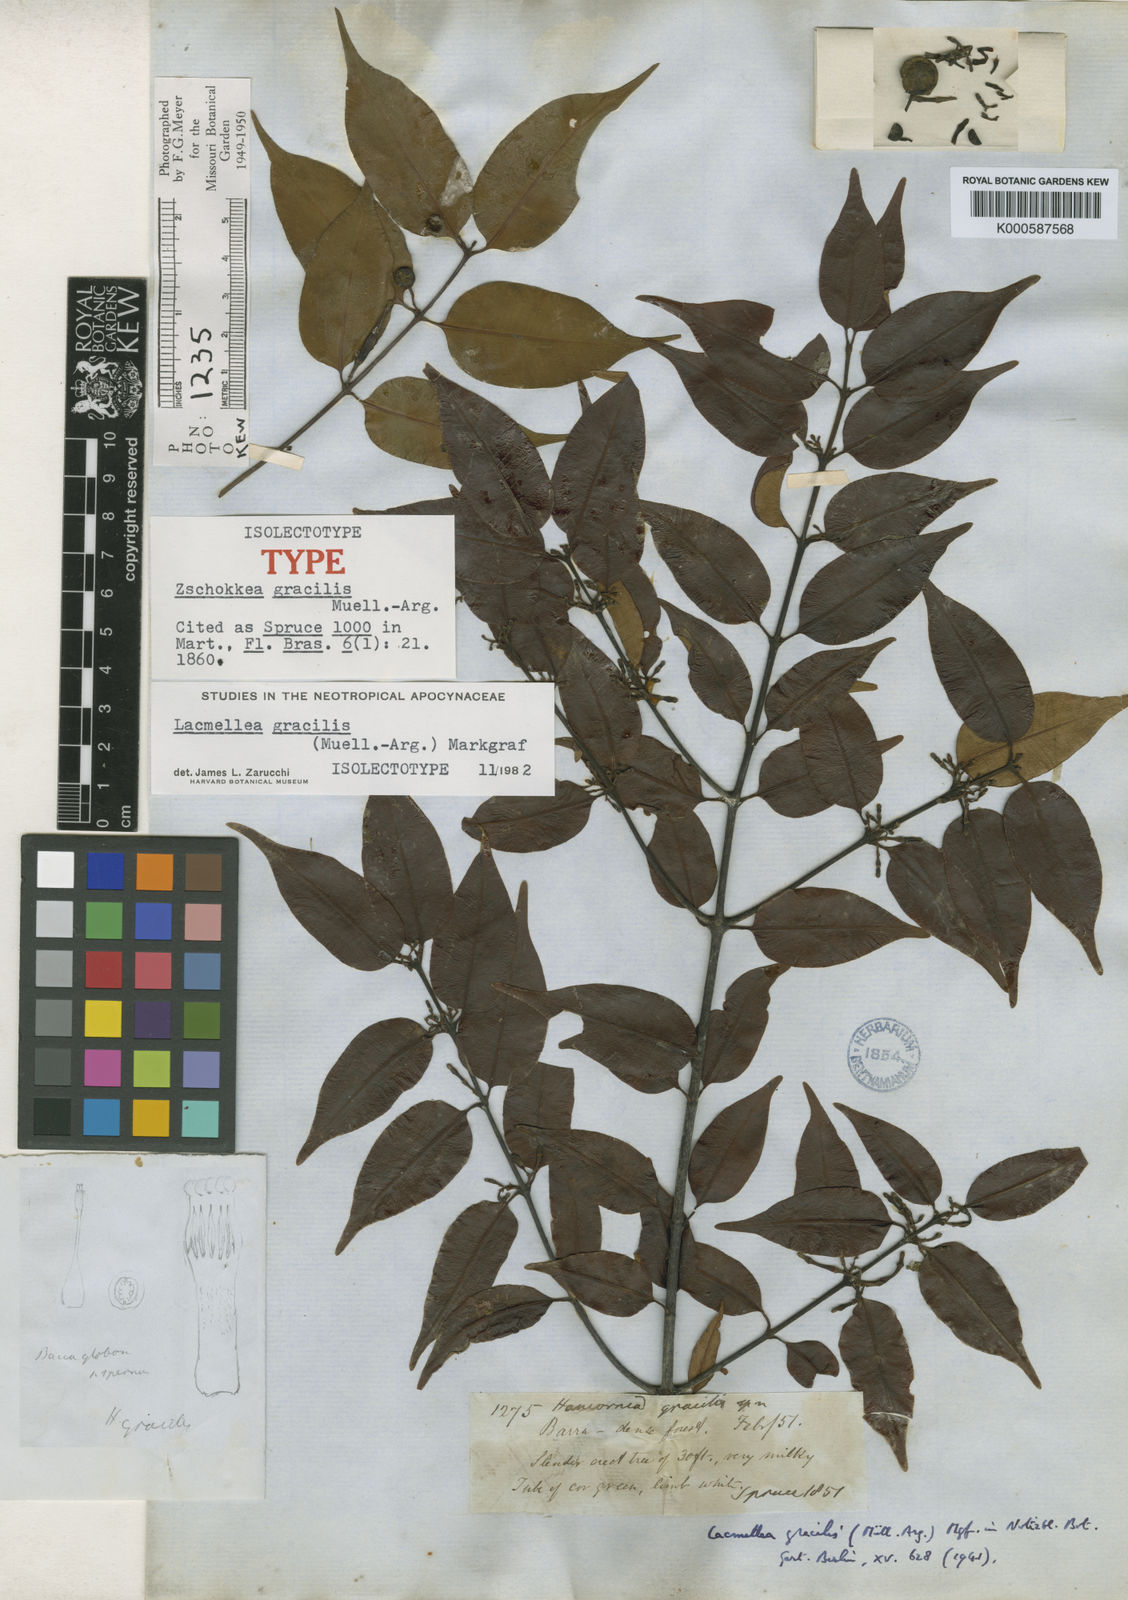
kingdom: Plantae
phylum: Tracheophyta
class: Magnoliopsida
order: Gentianales
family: Apocynaceae
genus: Lacmellea
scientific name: Lacmellea
